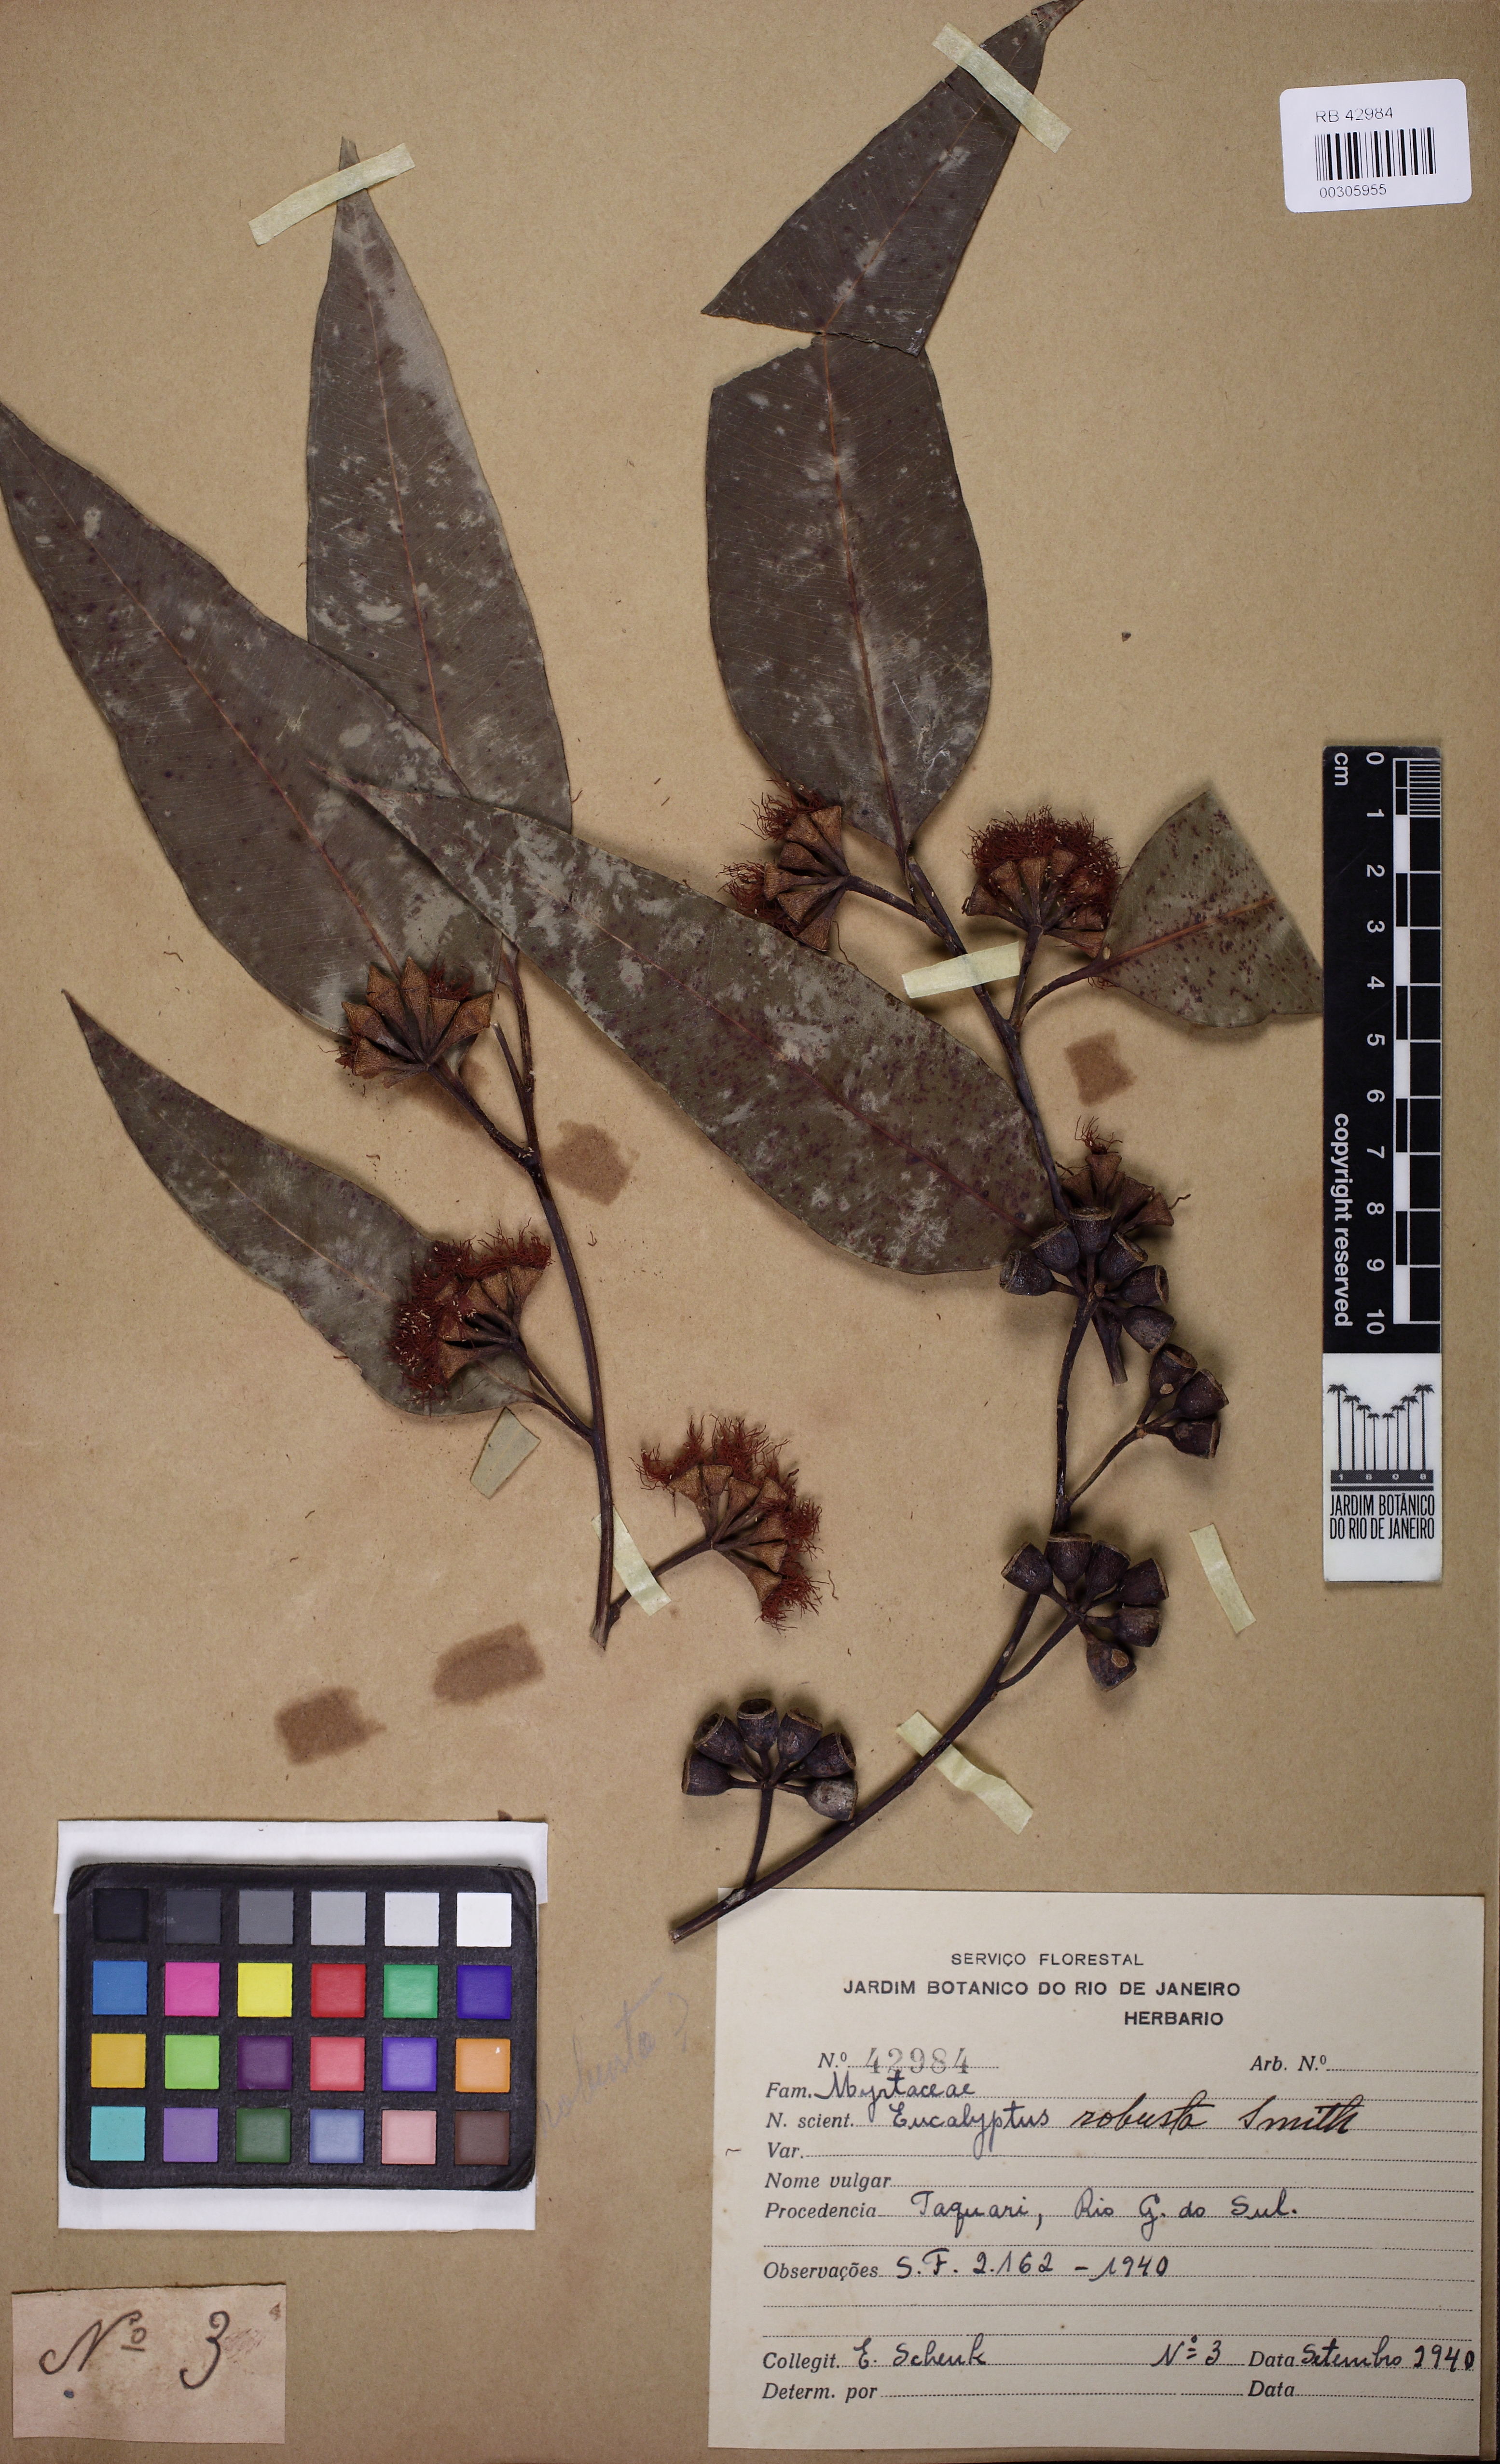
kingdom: Plantae
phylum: Tracheophyta
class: Magnoliopsida
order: Myrtales
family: Myrtaceae
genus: Eucalyptus
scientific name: Eucalyptus robusta
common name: Swampmahogany
